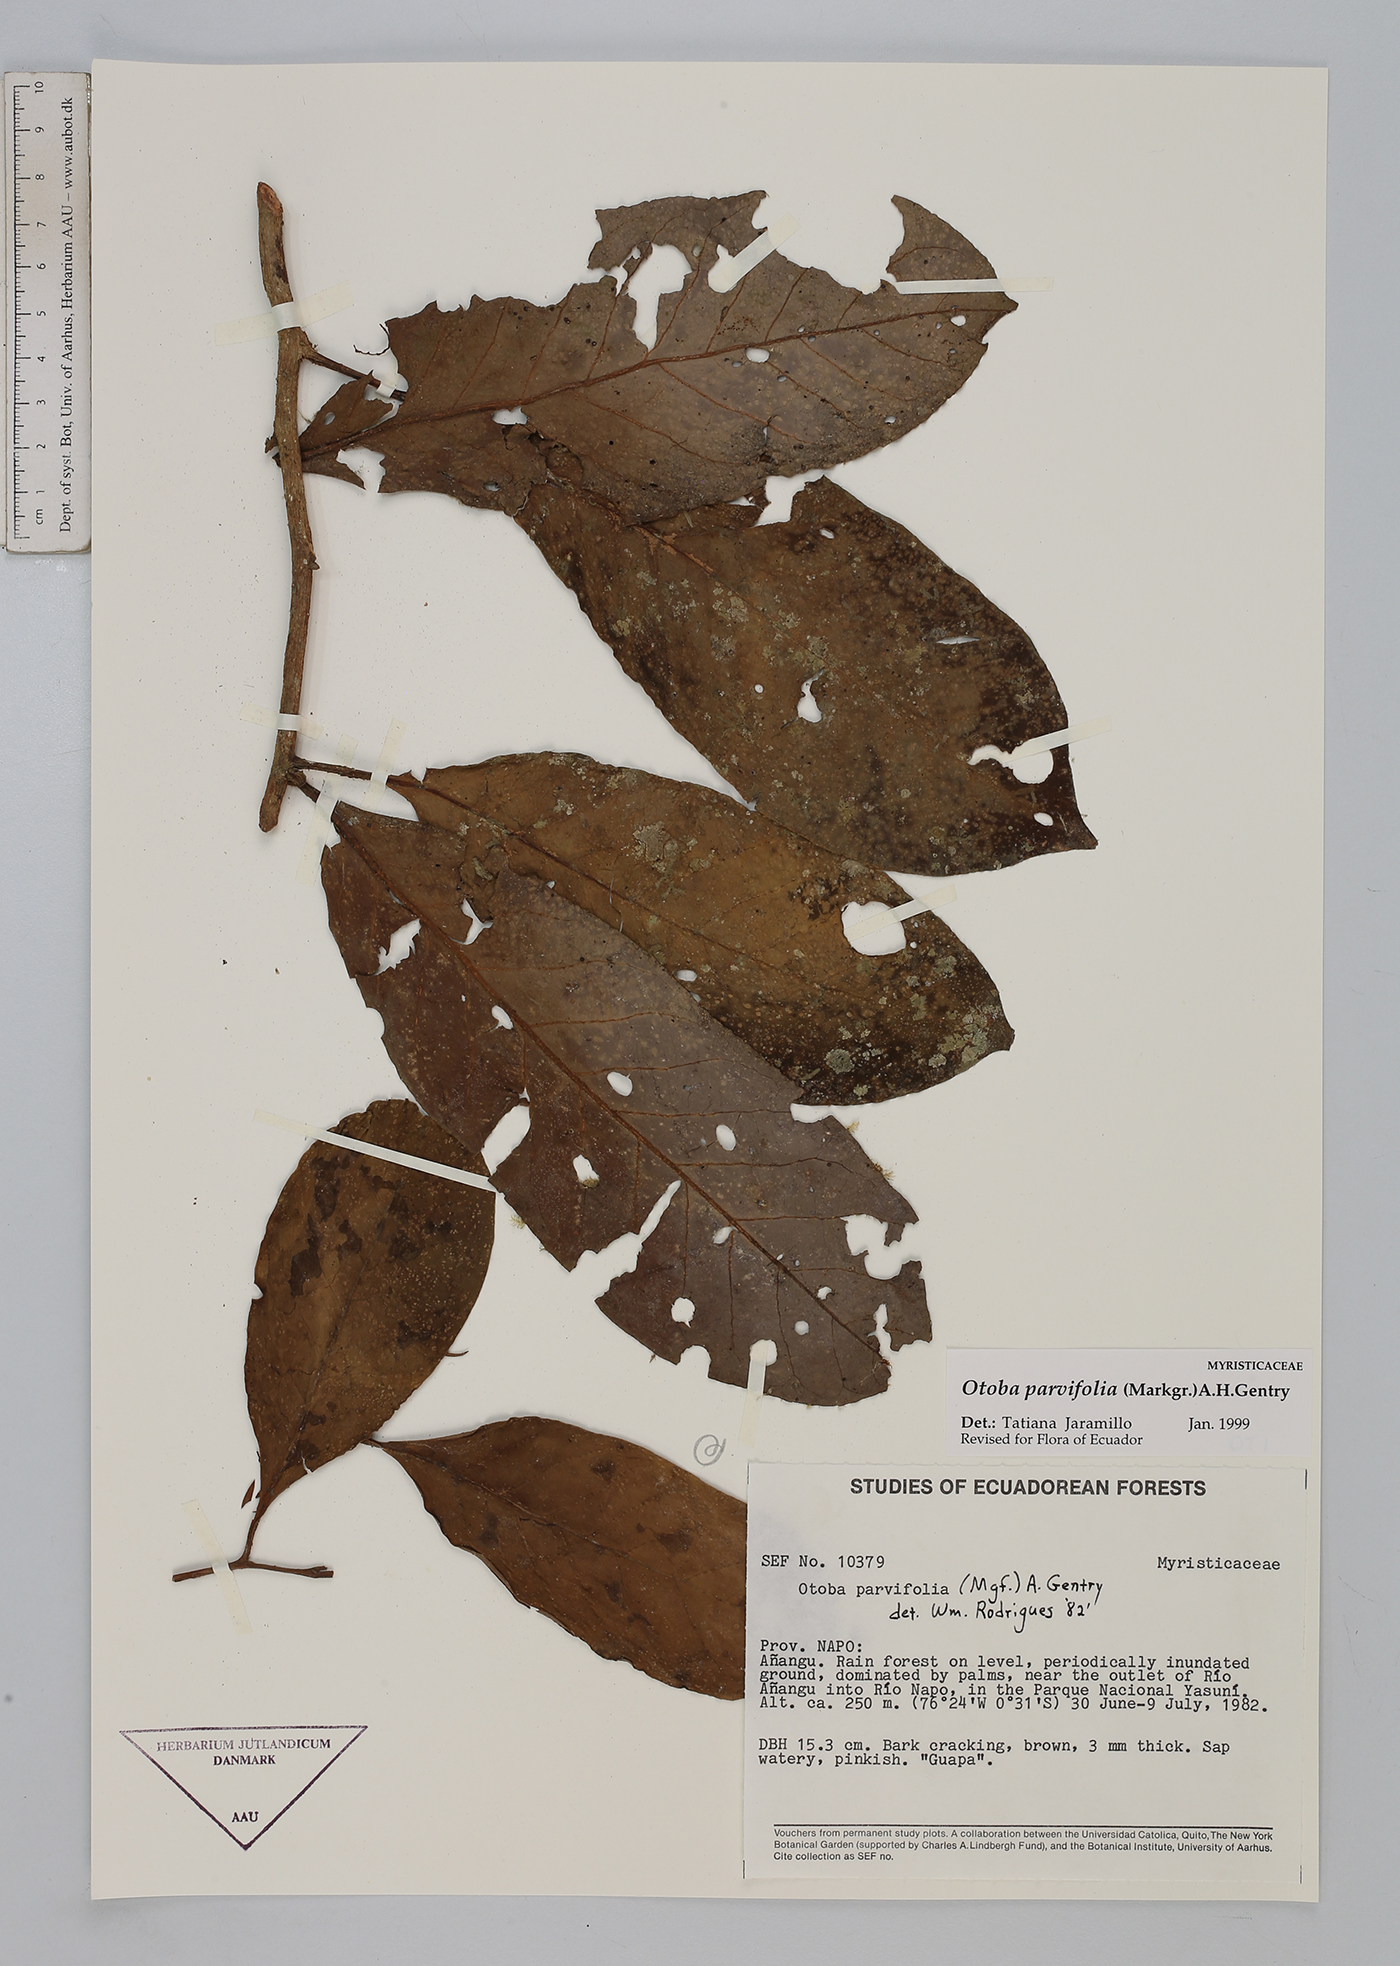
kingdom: Plantae
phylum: Tracheophyta
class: Magnoliopsida
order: Magnoliales
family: Myristicaceae
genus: Otoba
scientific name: Otoba parvifolia
